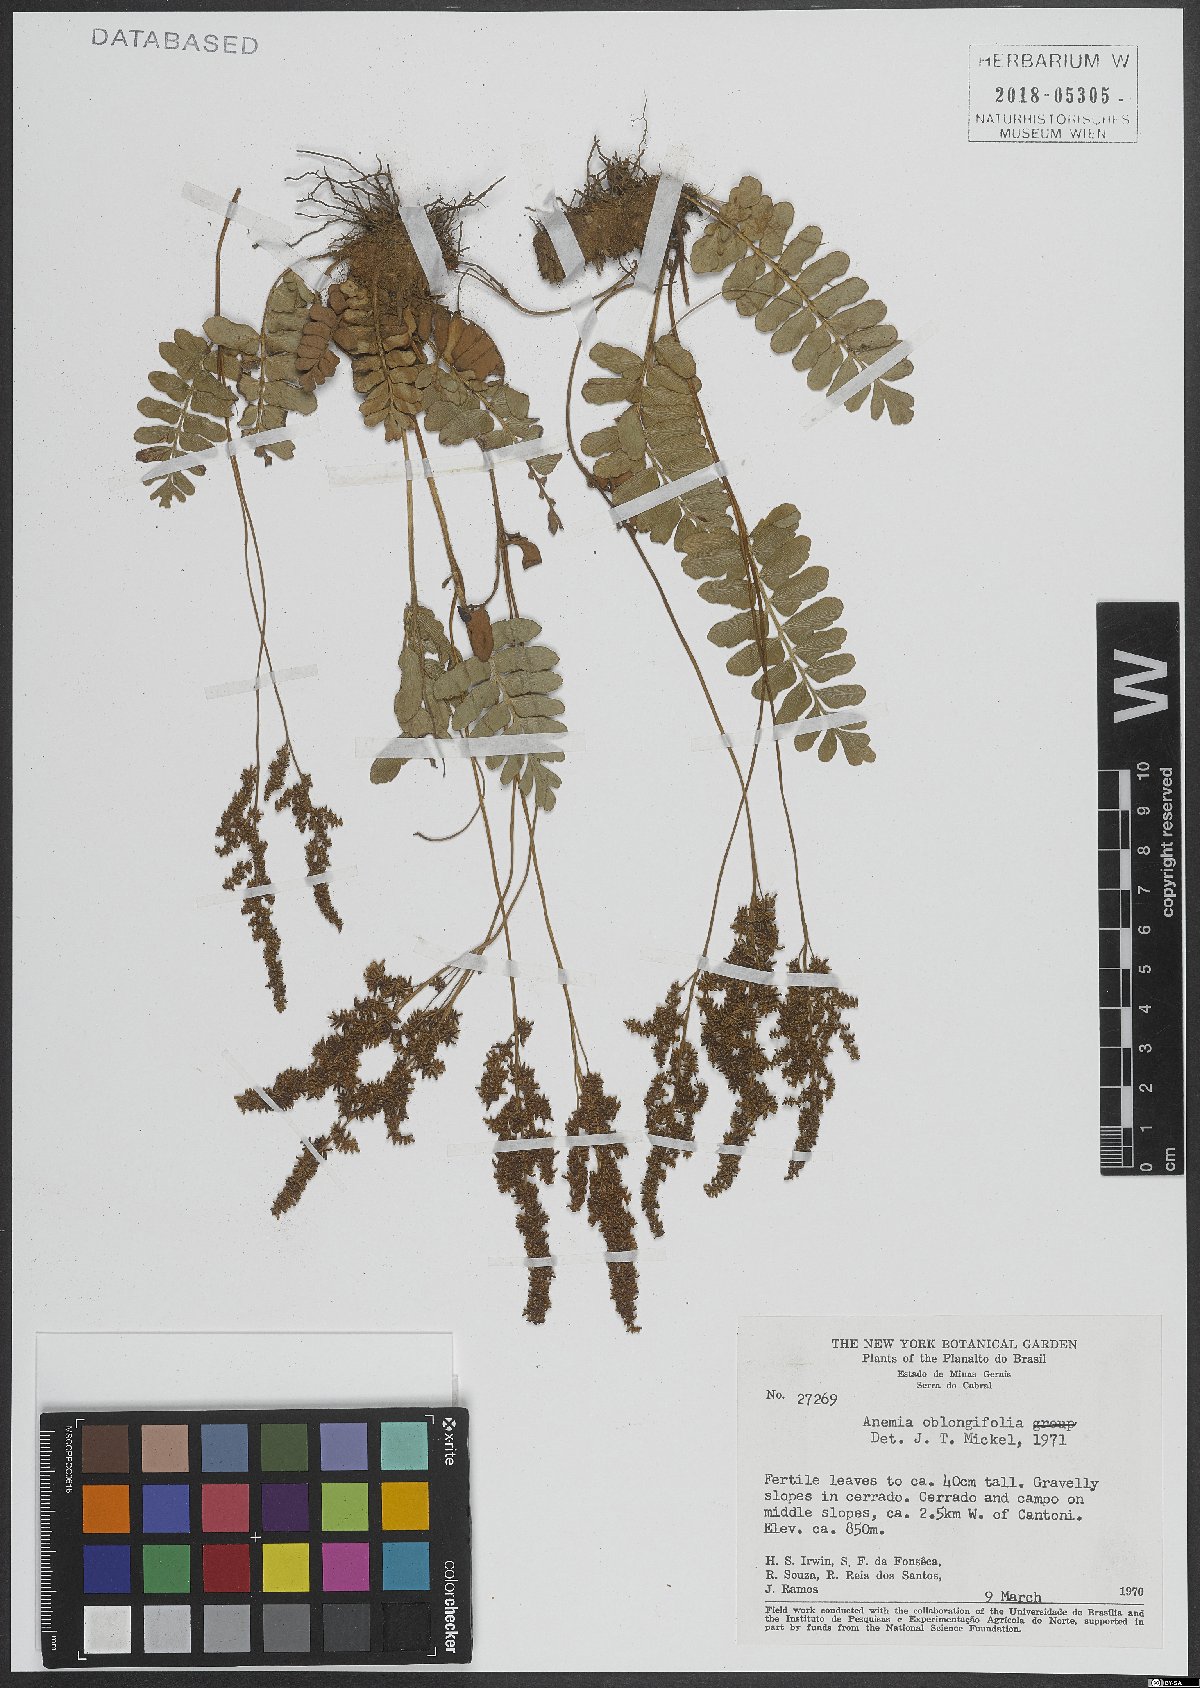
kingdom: Plantae
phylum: Tracheophyta
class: Polypodiopsida
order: Schizaeales
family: Anemiaceae
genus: Anemia
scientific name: Anemia oblongifolia
